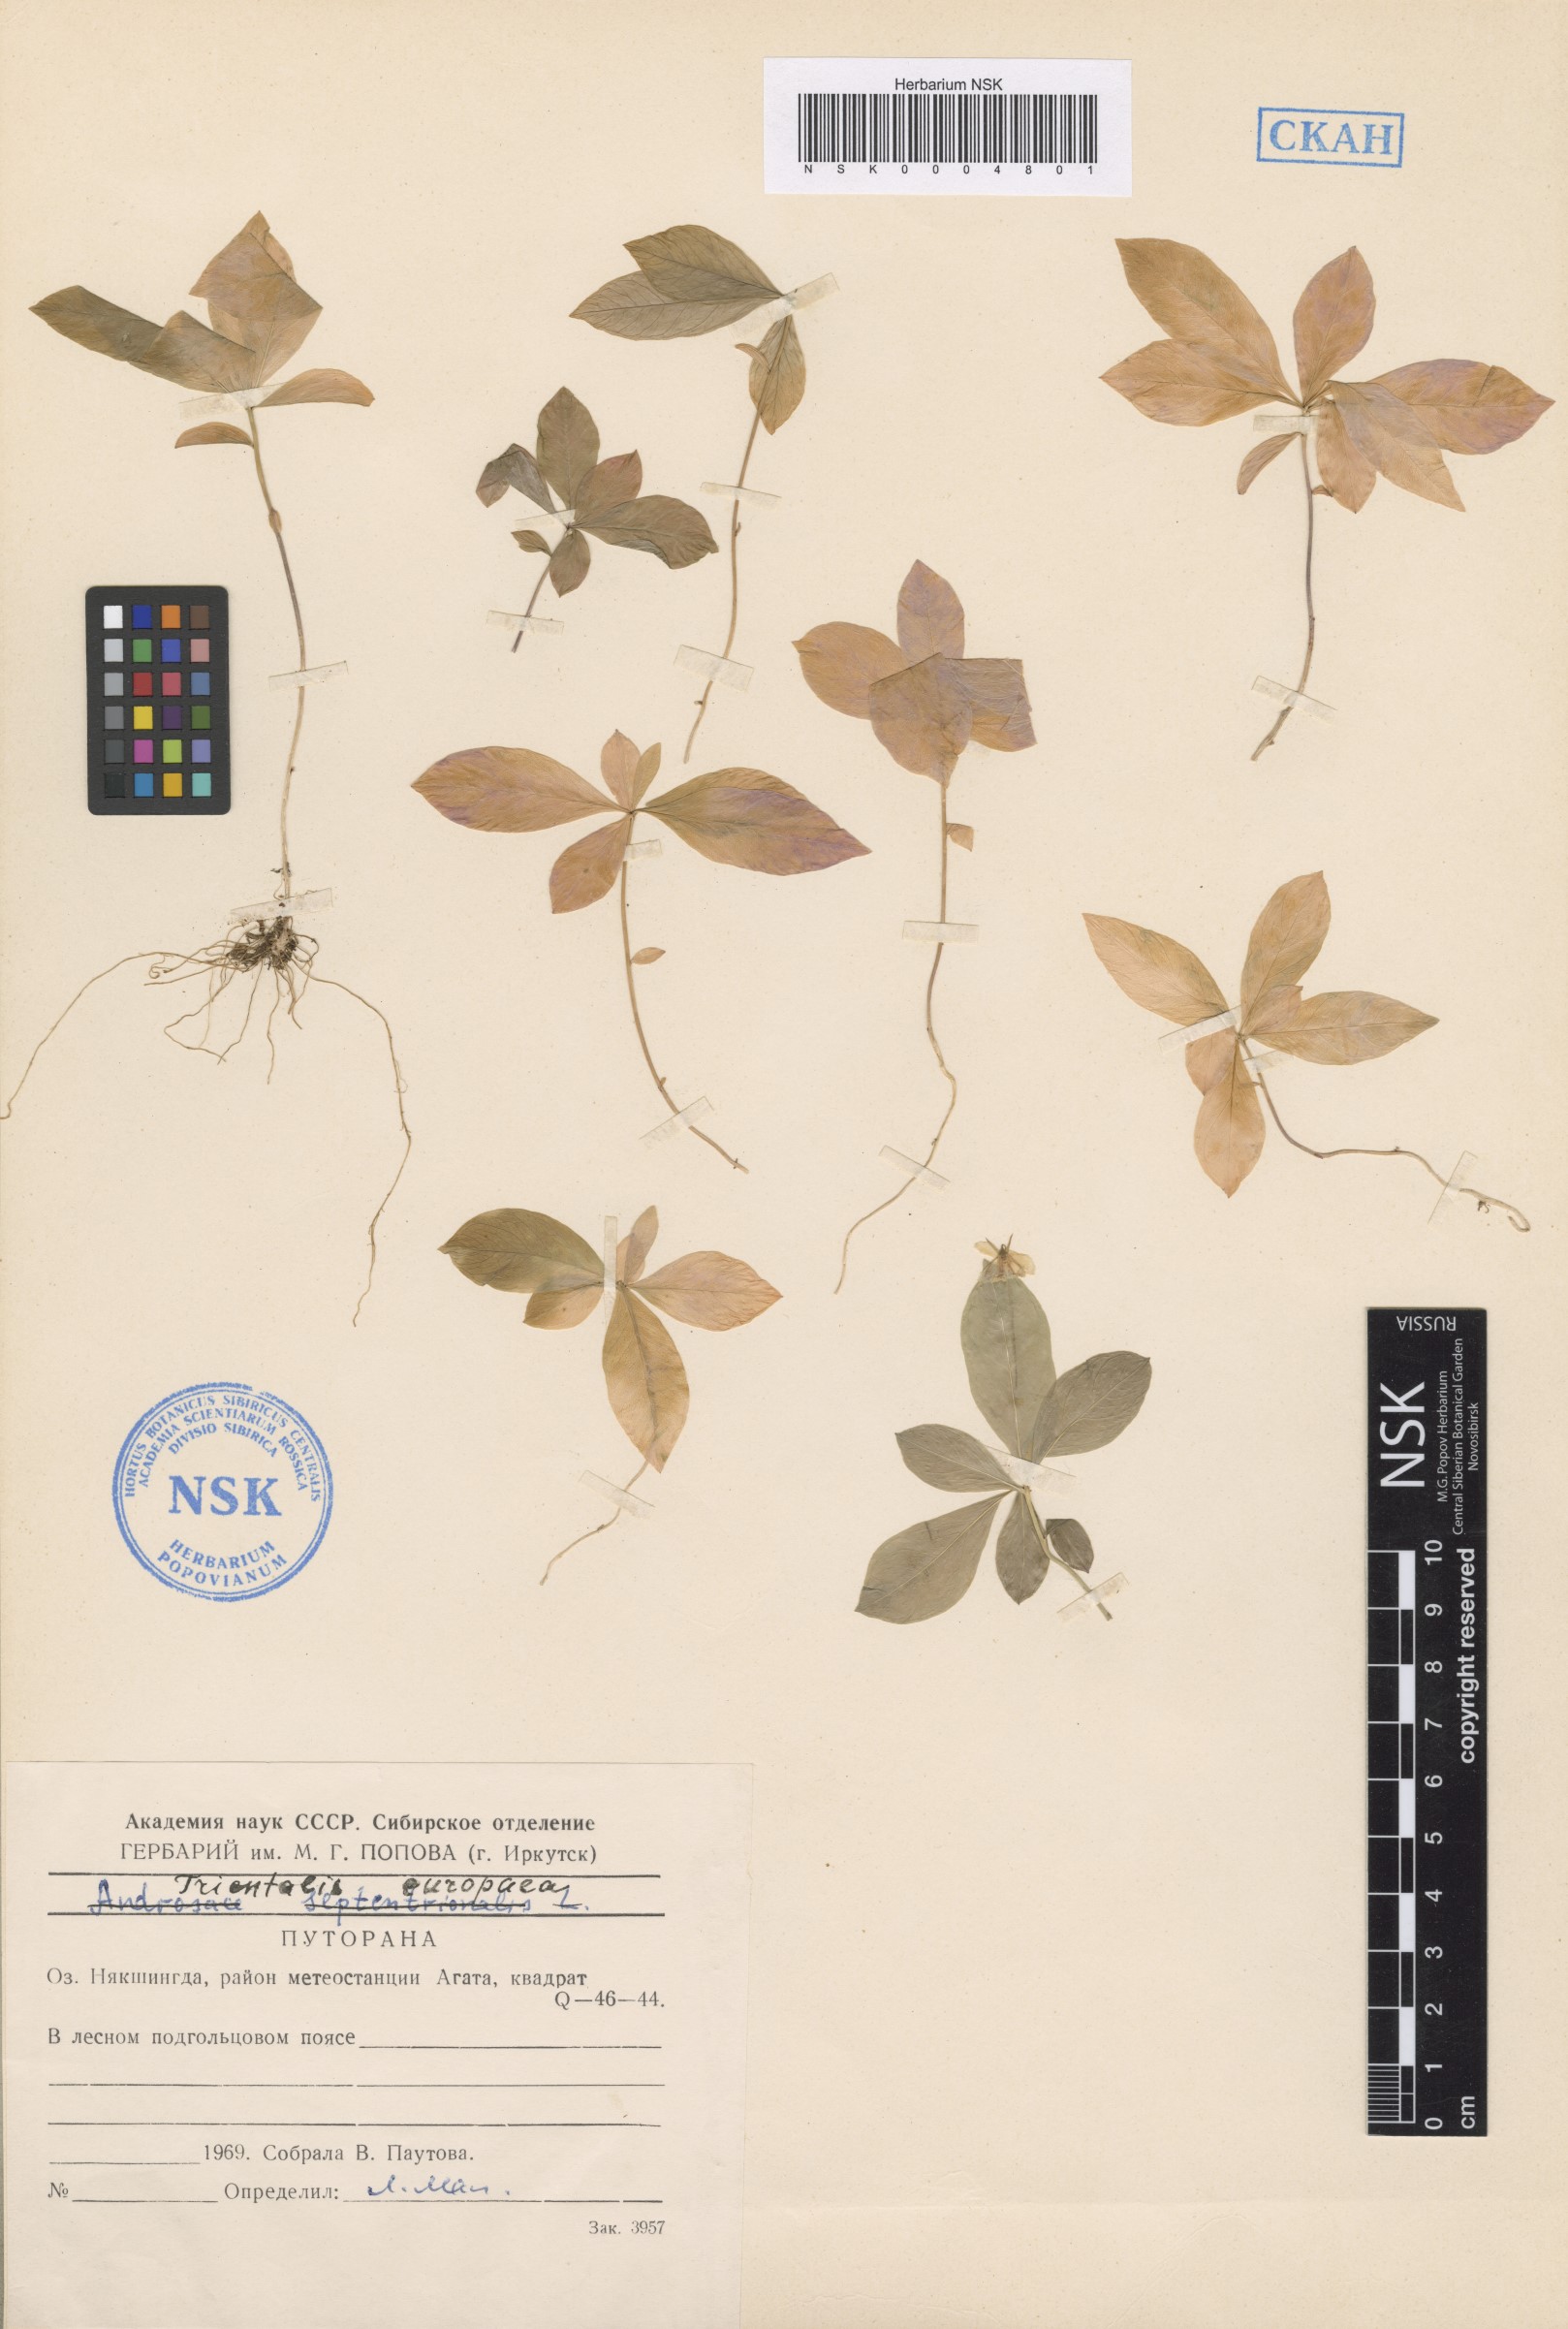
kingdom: Plantae
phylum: Tracheophyta
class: Magnoliopsida
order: Ericales
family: Primulaceae
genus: Lysimachia
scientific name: Lysimachia europaea
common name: Arctic starflower
